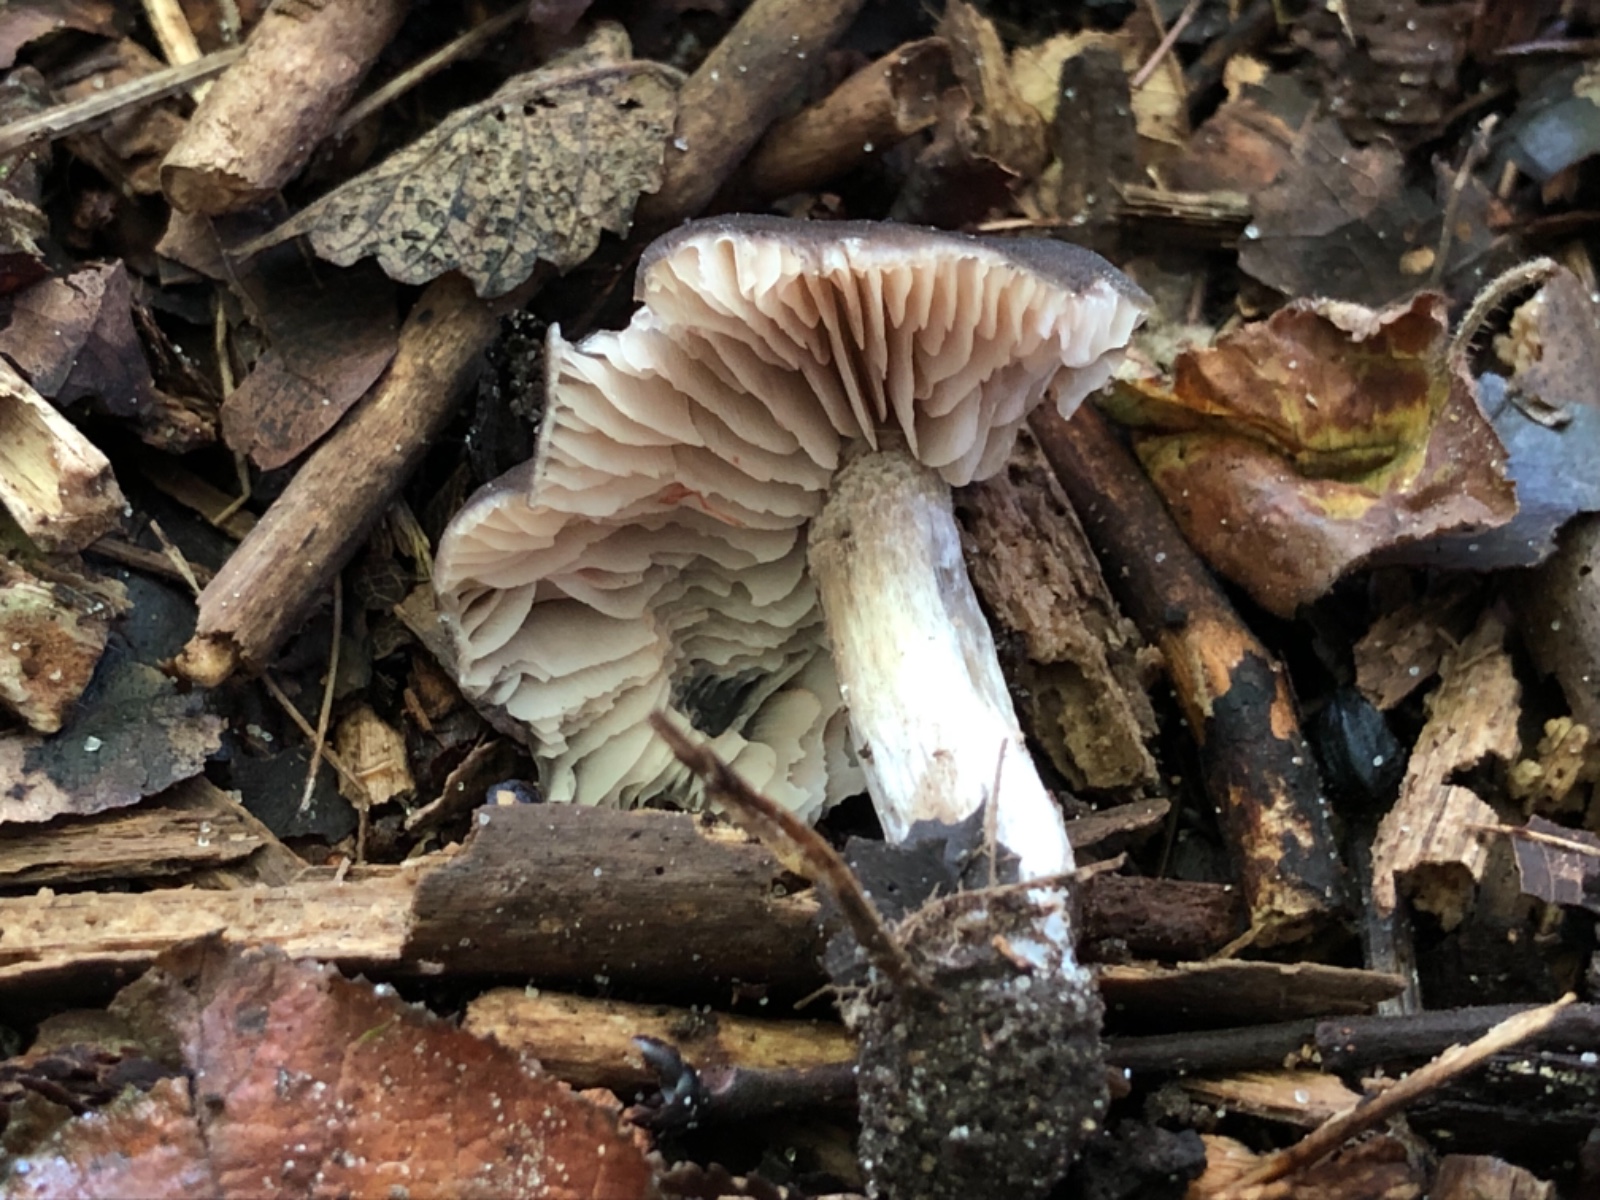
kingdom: Fungi
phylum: Basidiomycota
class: Agaricomycetes
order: Agaricales
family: Entolomataceae
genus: Entoloma
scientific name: Entoloma
